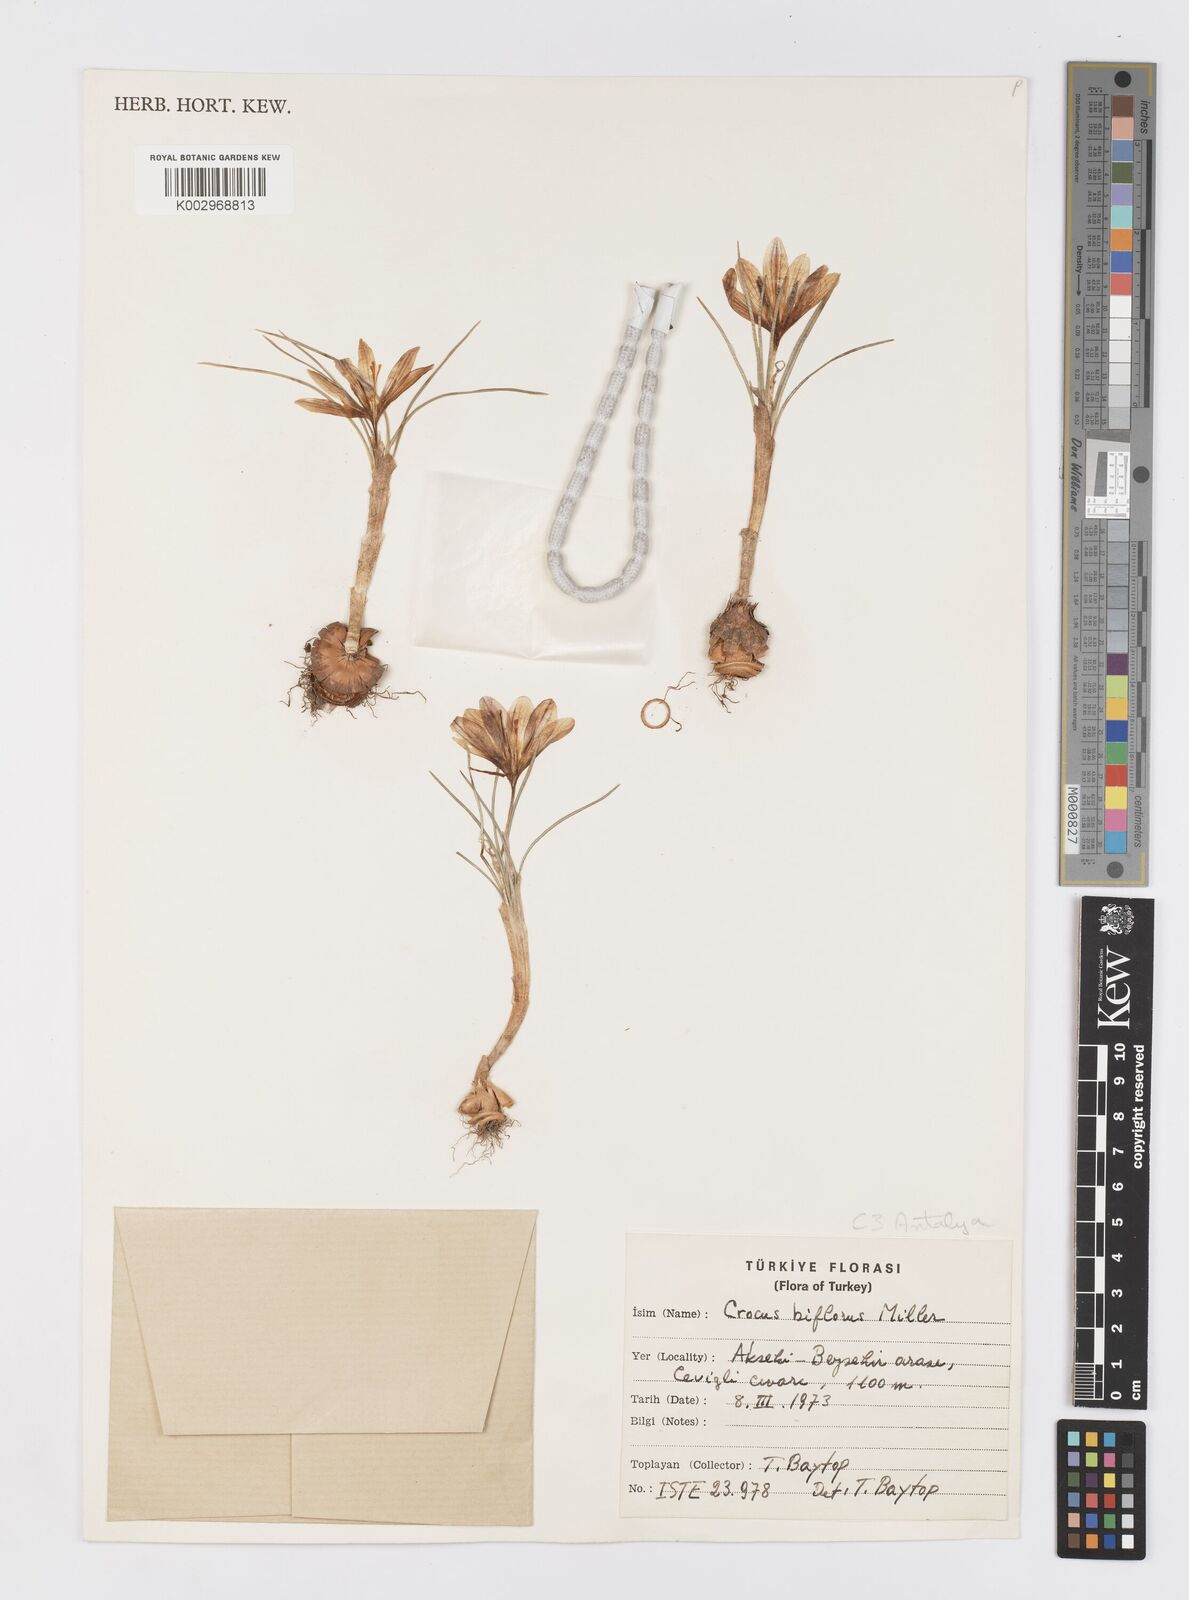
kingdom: Plantae
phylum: Tracheophyta
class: Liliopsida
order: Asparagales
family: Iridaceae
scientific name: Iridaceae
